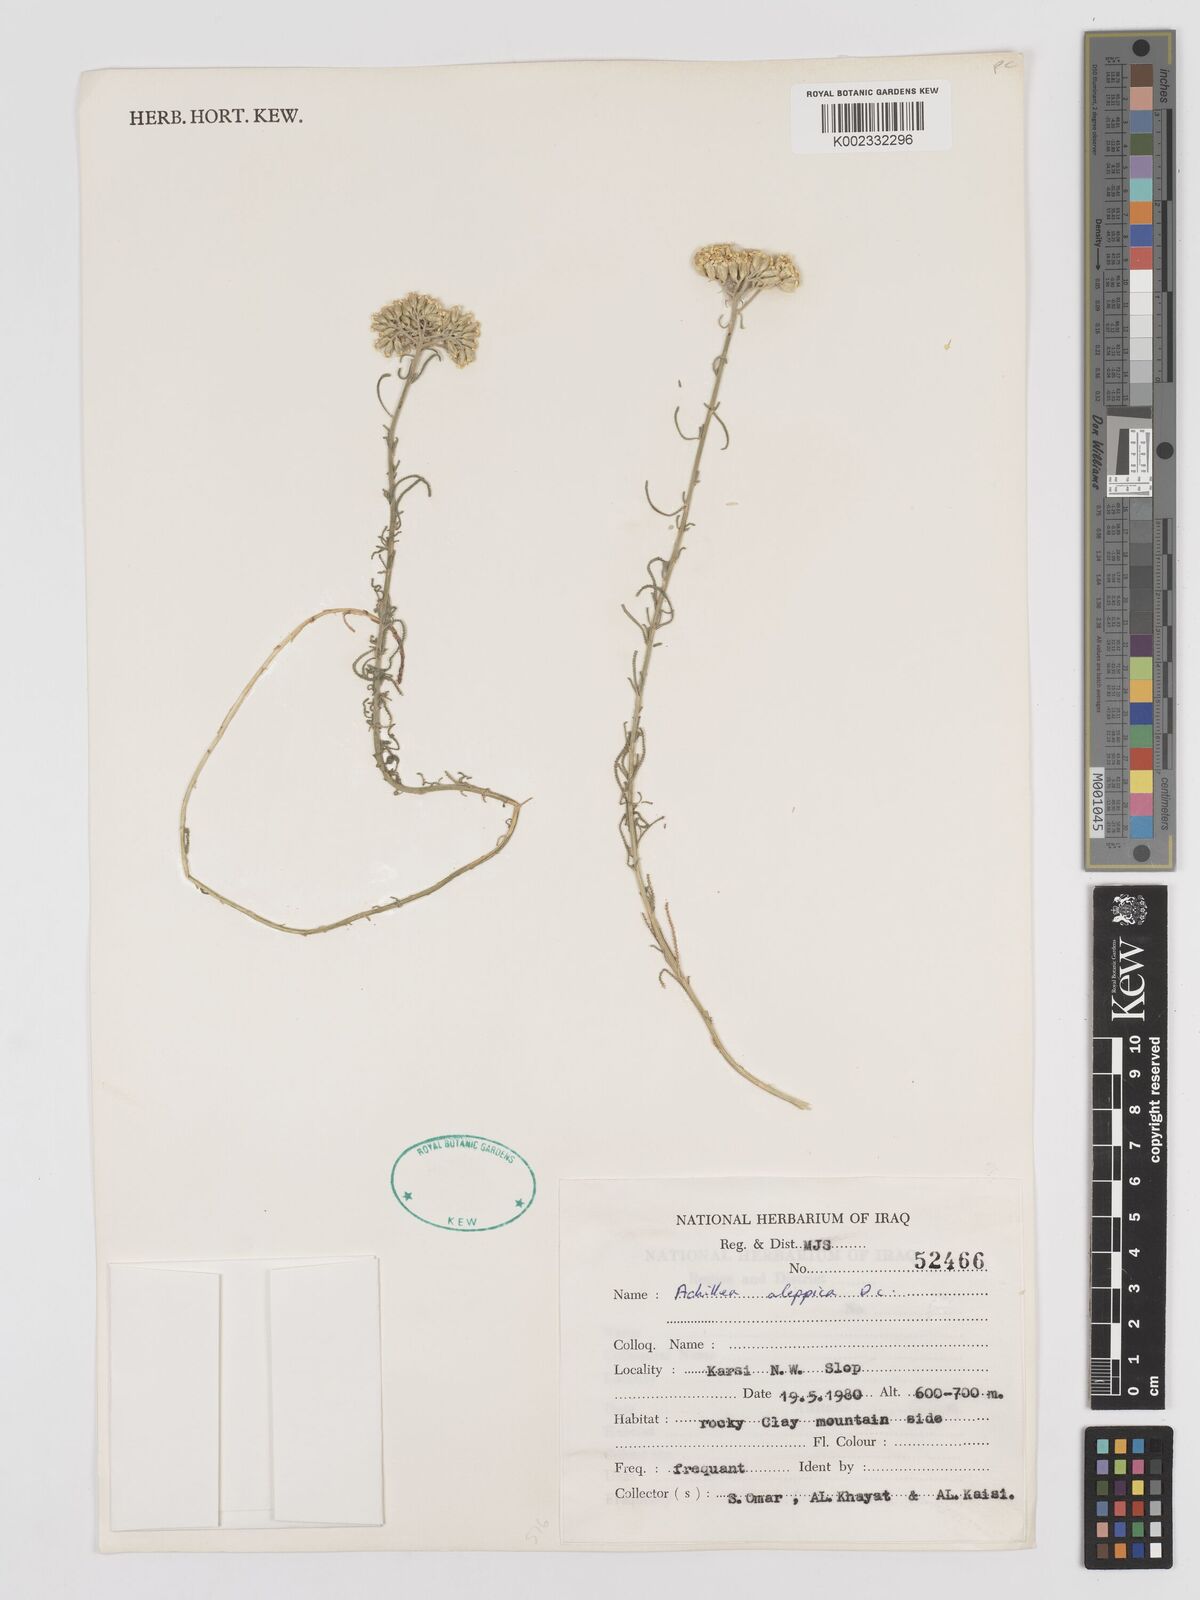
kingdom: Plantae
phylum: Tracheophyta
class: Magnoliopsida
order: Asterales
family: Asteraceae
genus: Achillea
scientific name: Achillea aleppica
